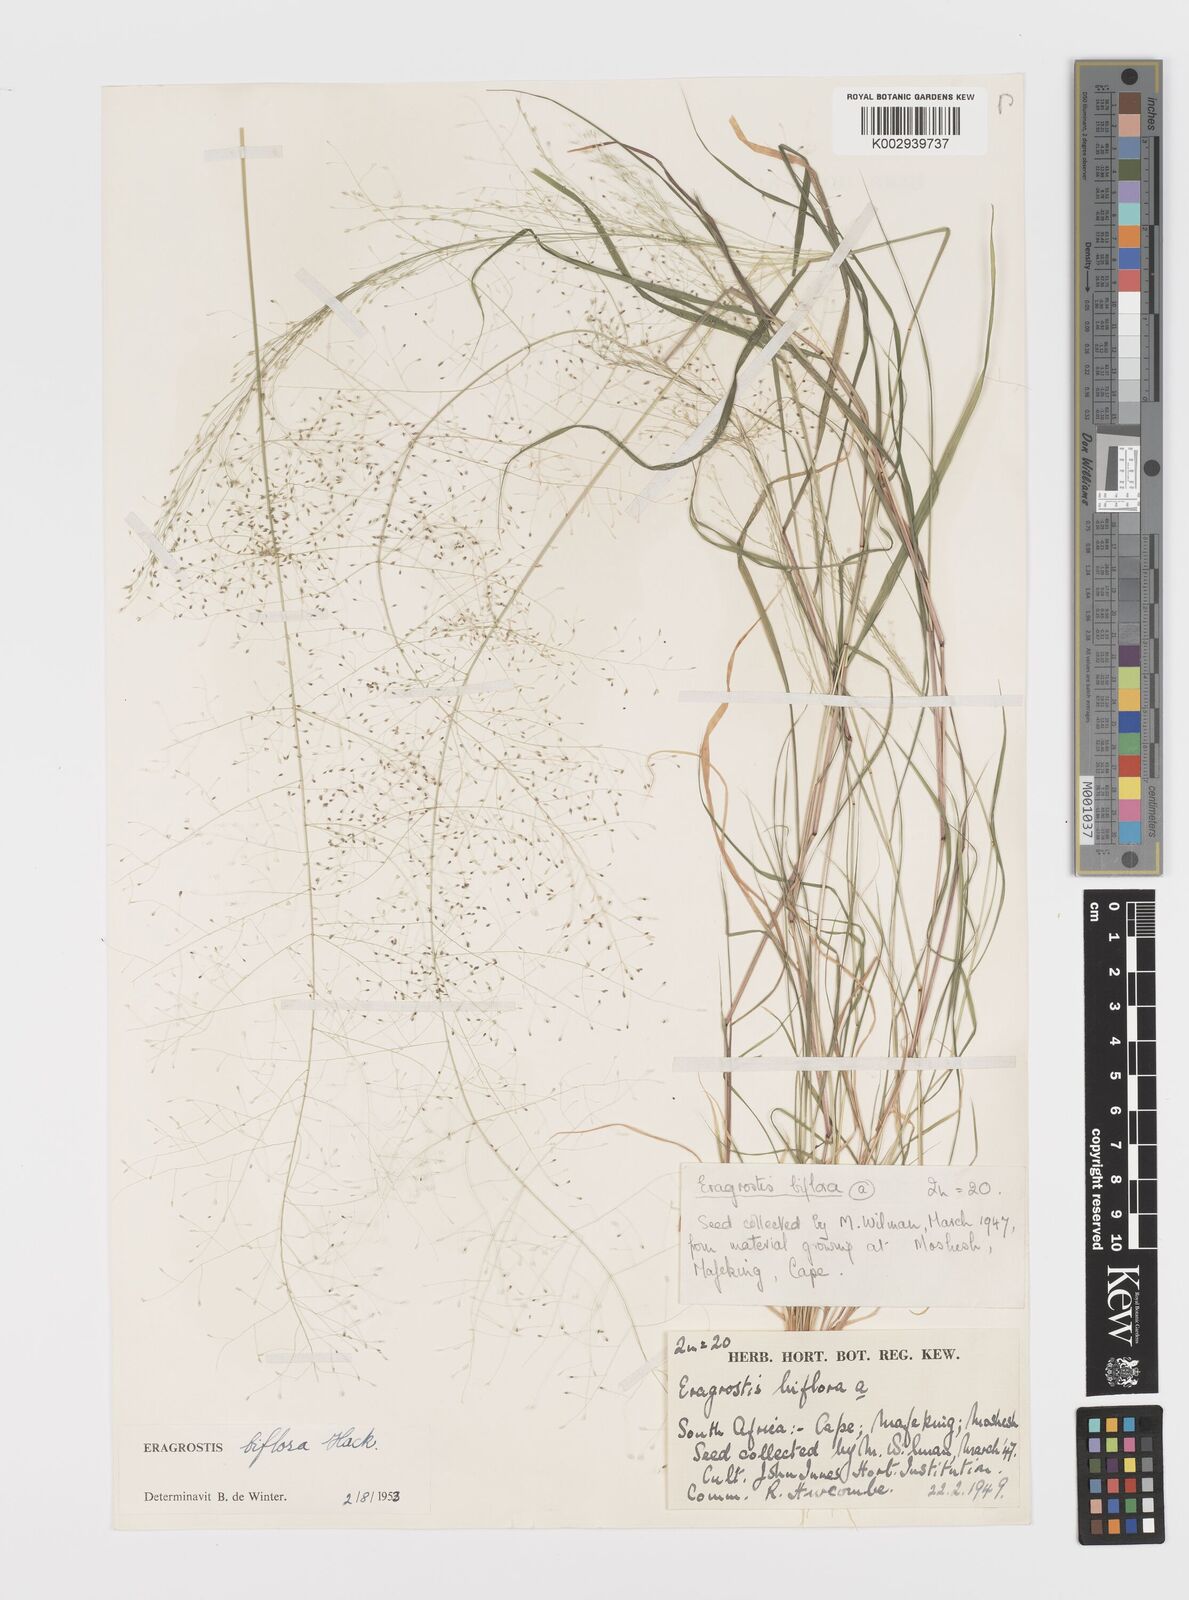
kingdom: Plantae
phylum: Tracheophyta
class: Liliopsida
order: Poales
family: Poaceae
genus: Eragrostis
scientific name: Eragrostis biflora
